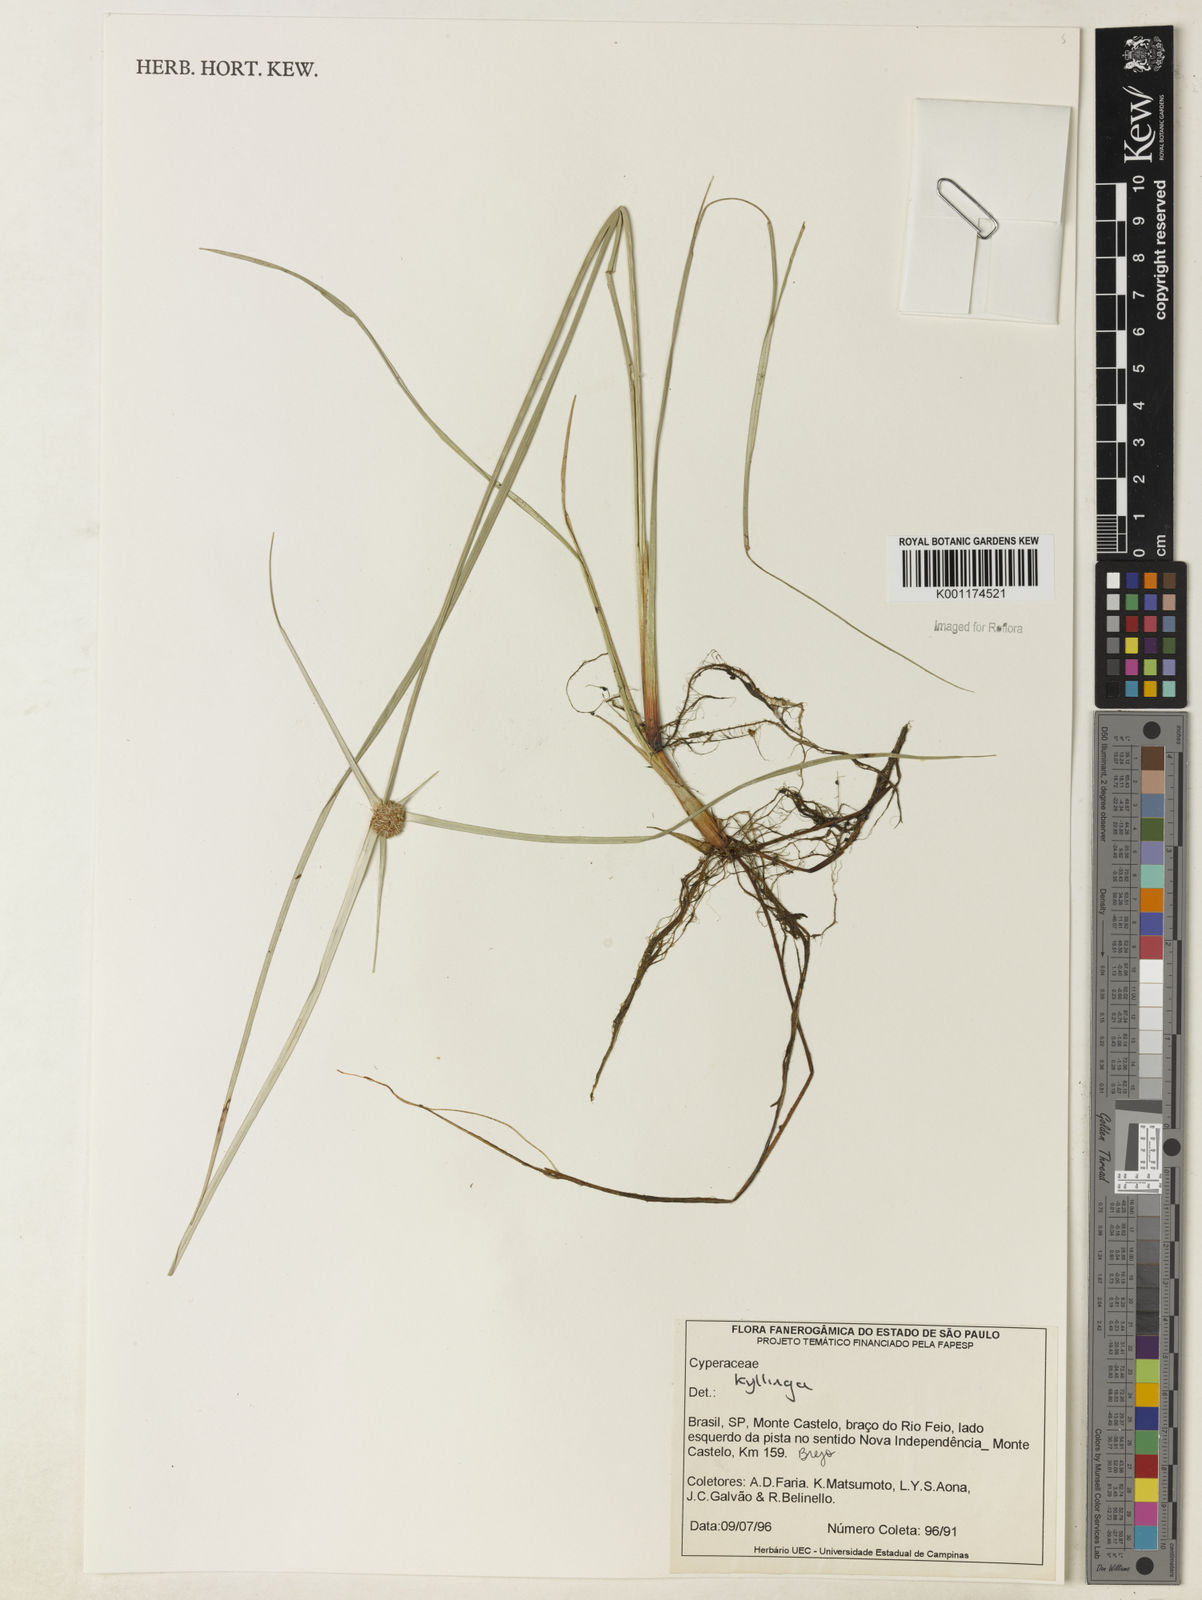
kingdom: Plantae
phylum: Tracheophyta
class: Liliopsida
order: Poales
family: Cyperaceae
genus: Cyperus
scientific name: Cyperus elegans
